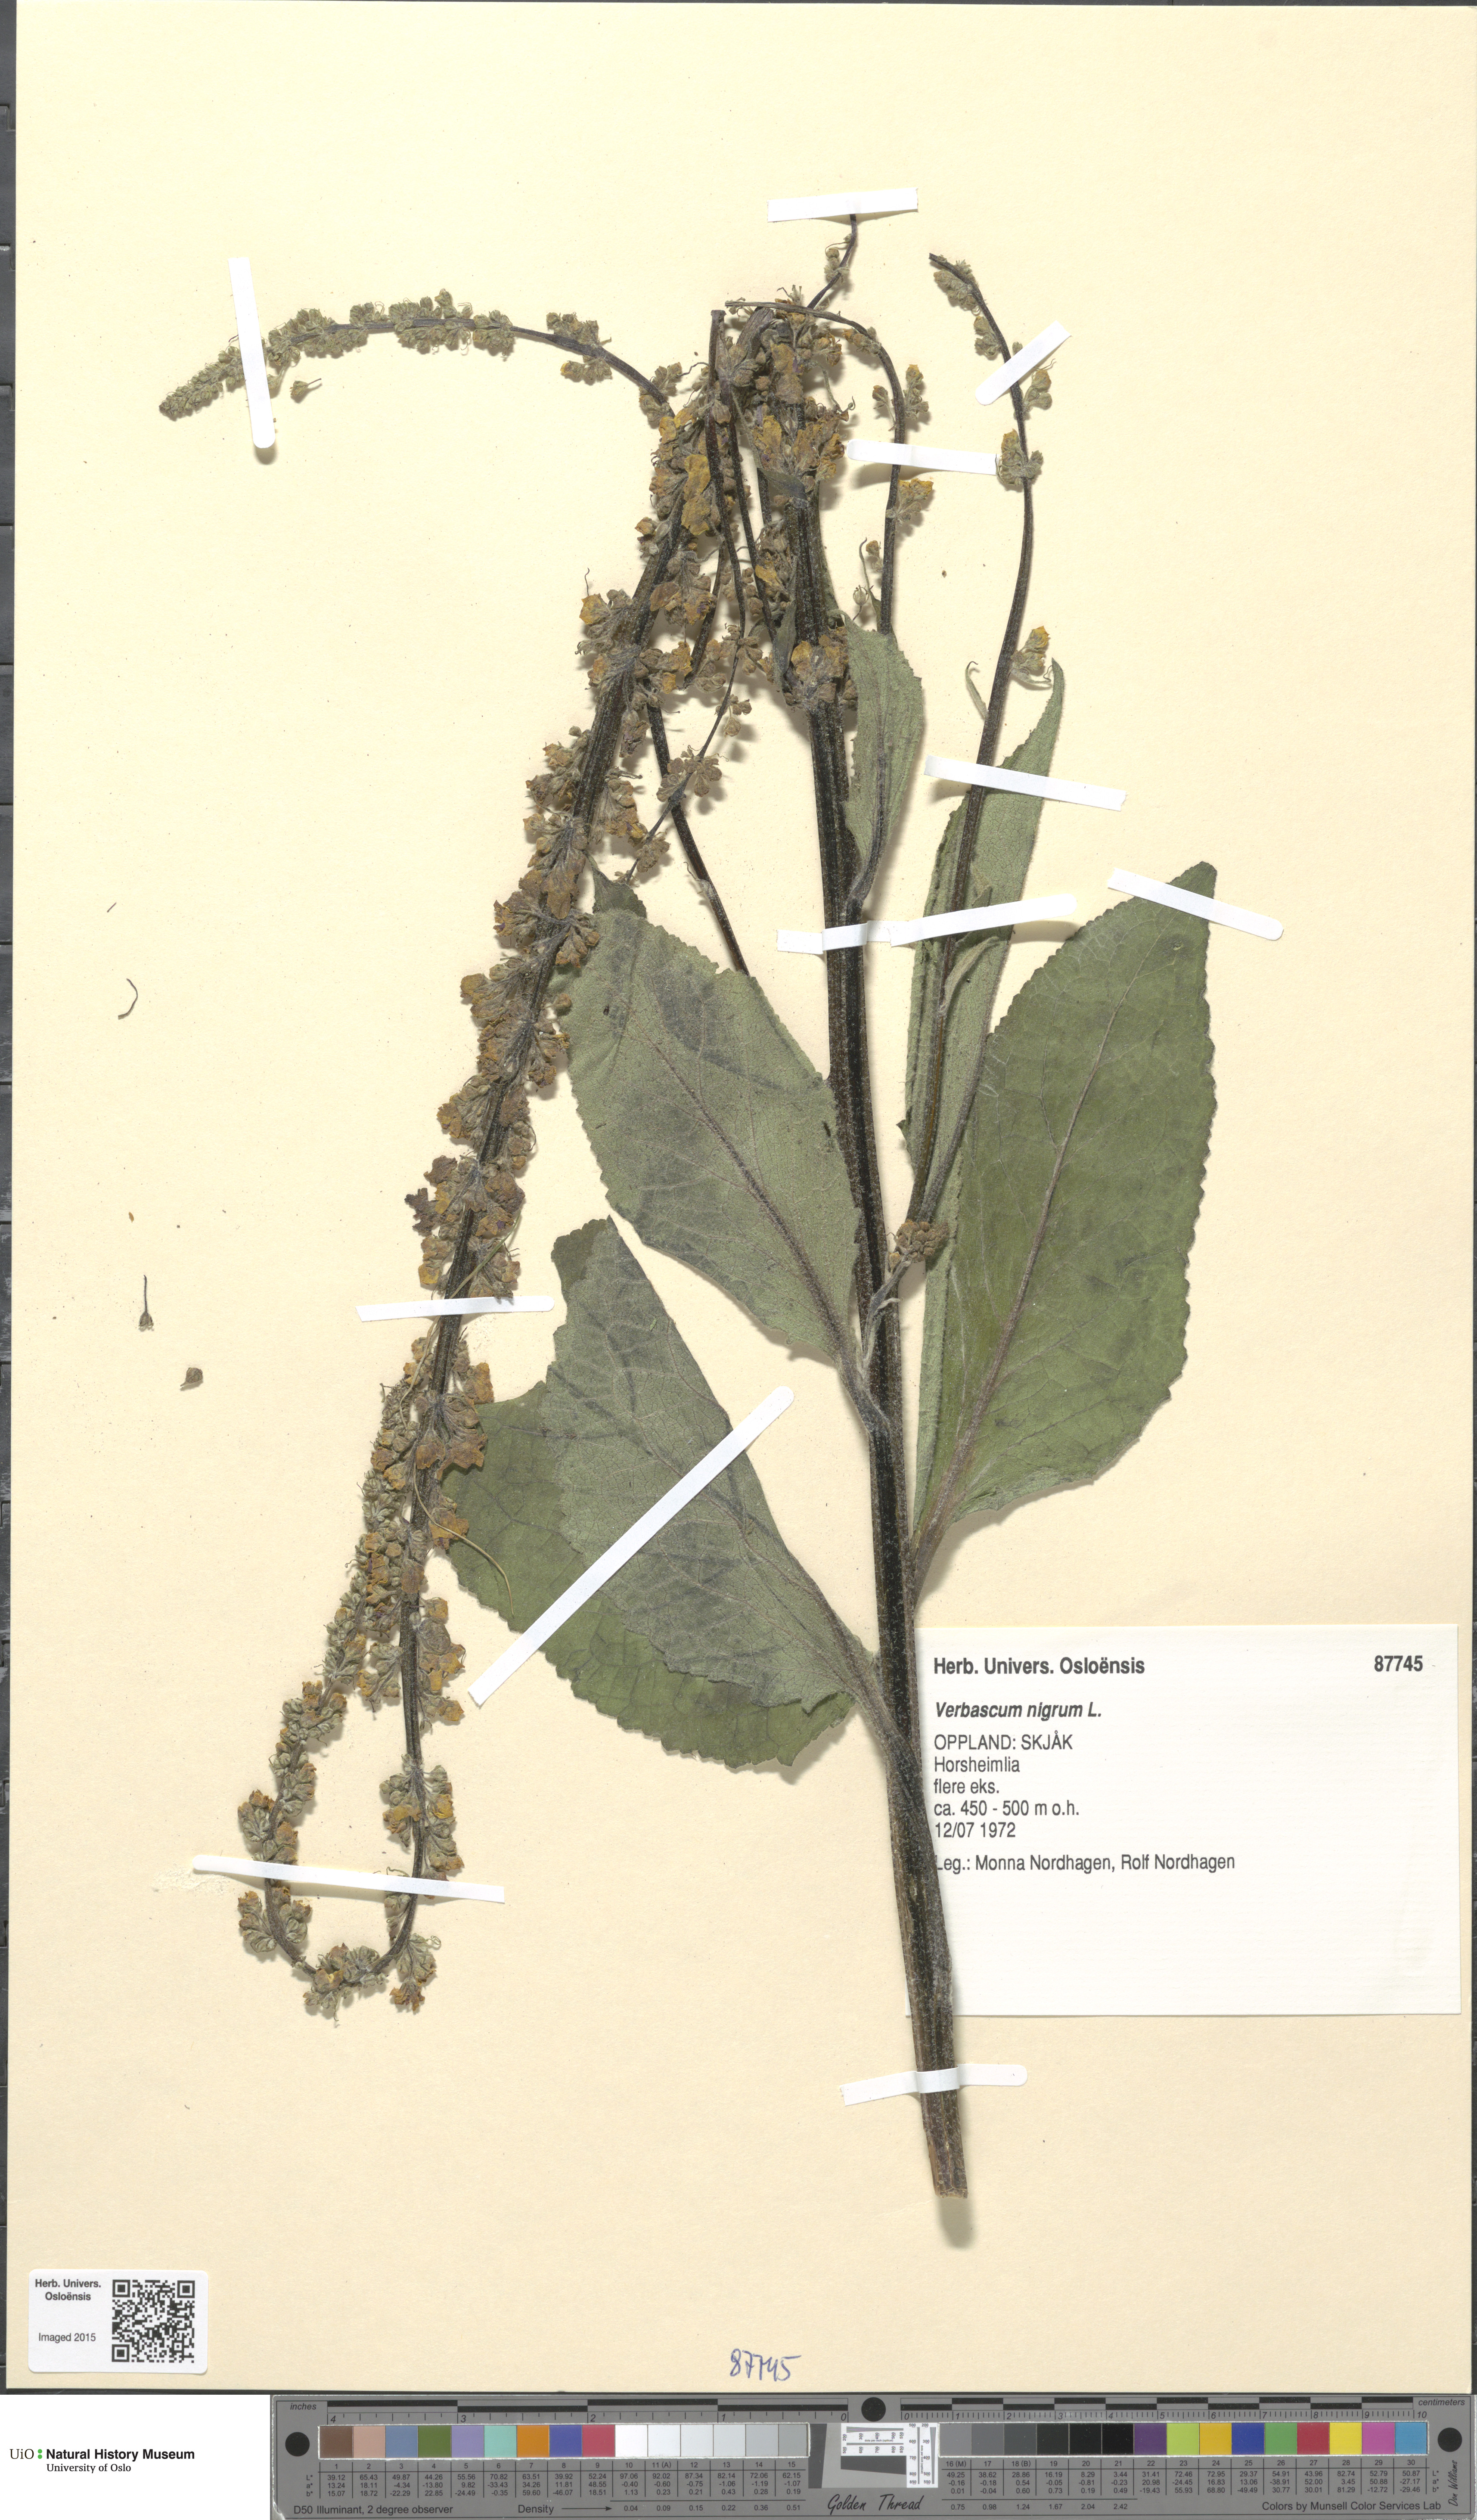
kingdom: Plantae
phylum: Tracheophyta
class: Magnoliopsida
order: Lamiales
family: Scrophulariaceae
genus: Verbascum
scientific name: Verbascum nigrum
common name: Dark mullein
